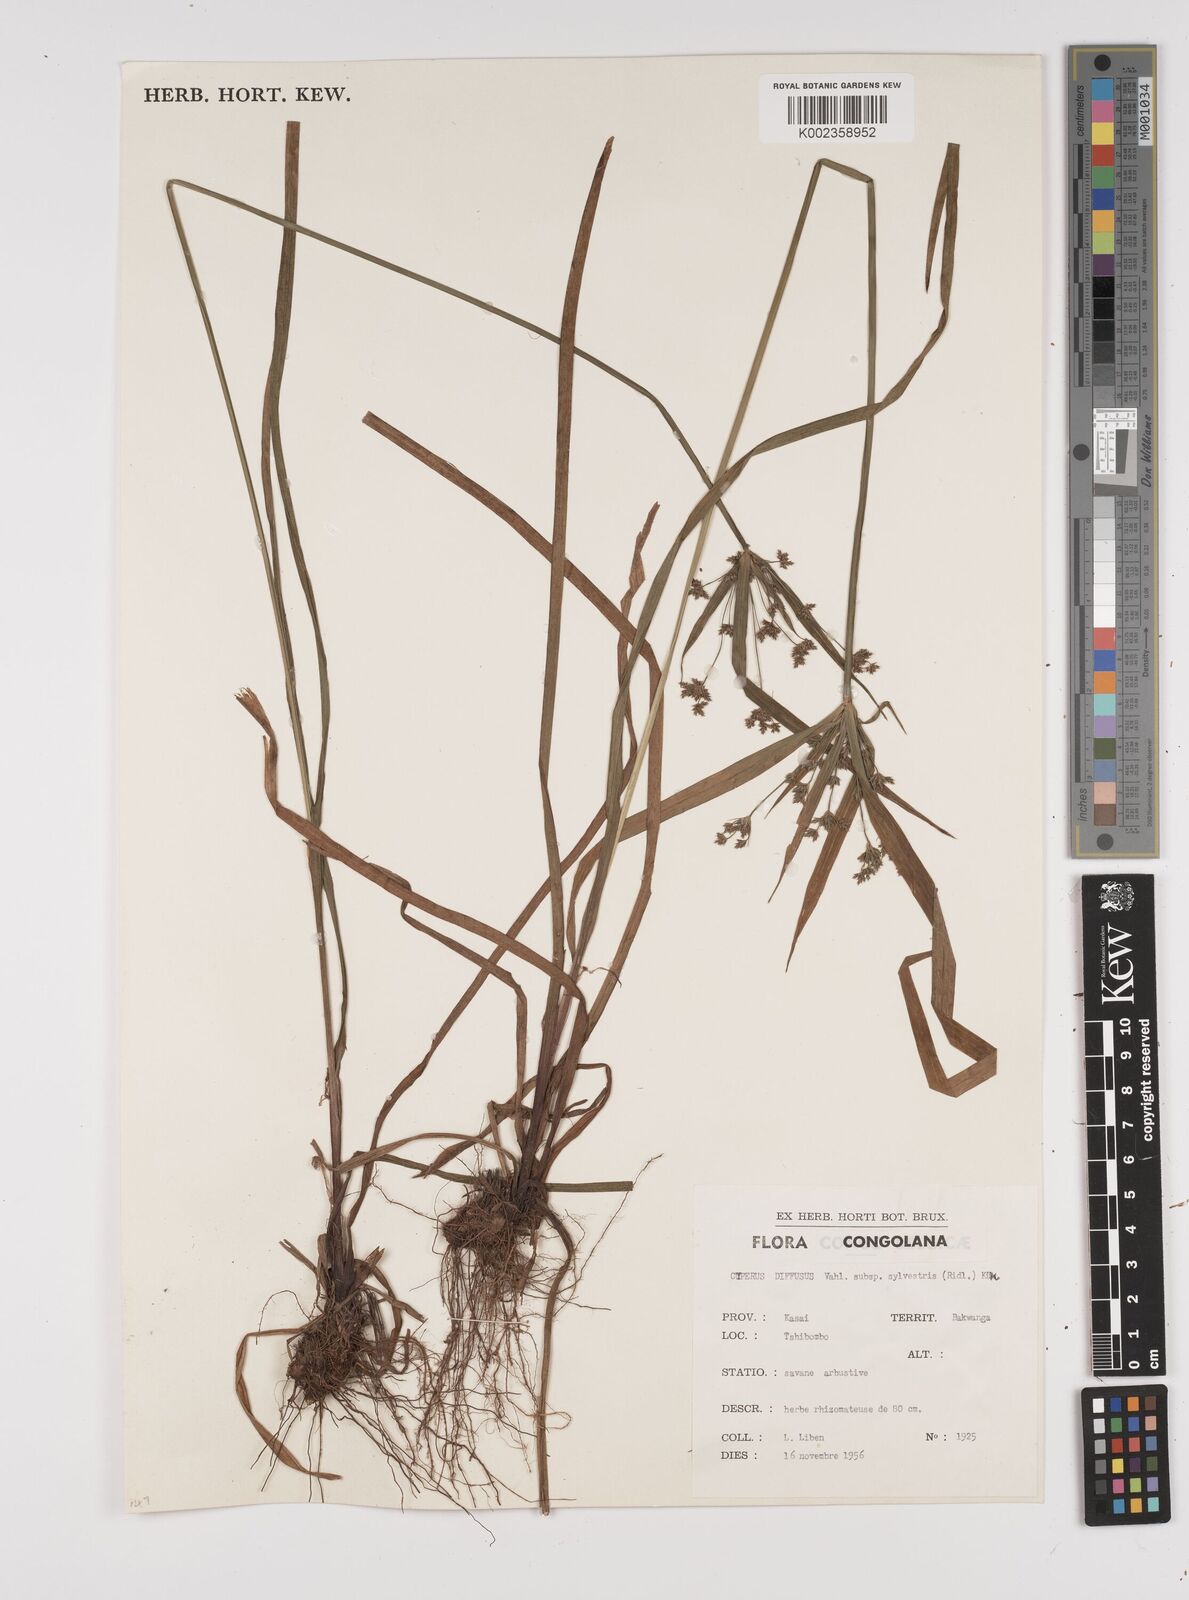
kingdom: Plantae
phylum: Tracheophyta
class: Liliopsida
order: Poales
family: Cyperaceae
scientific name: Cyperaceae
